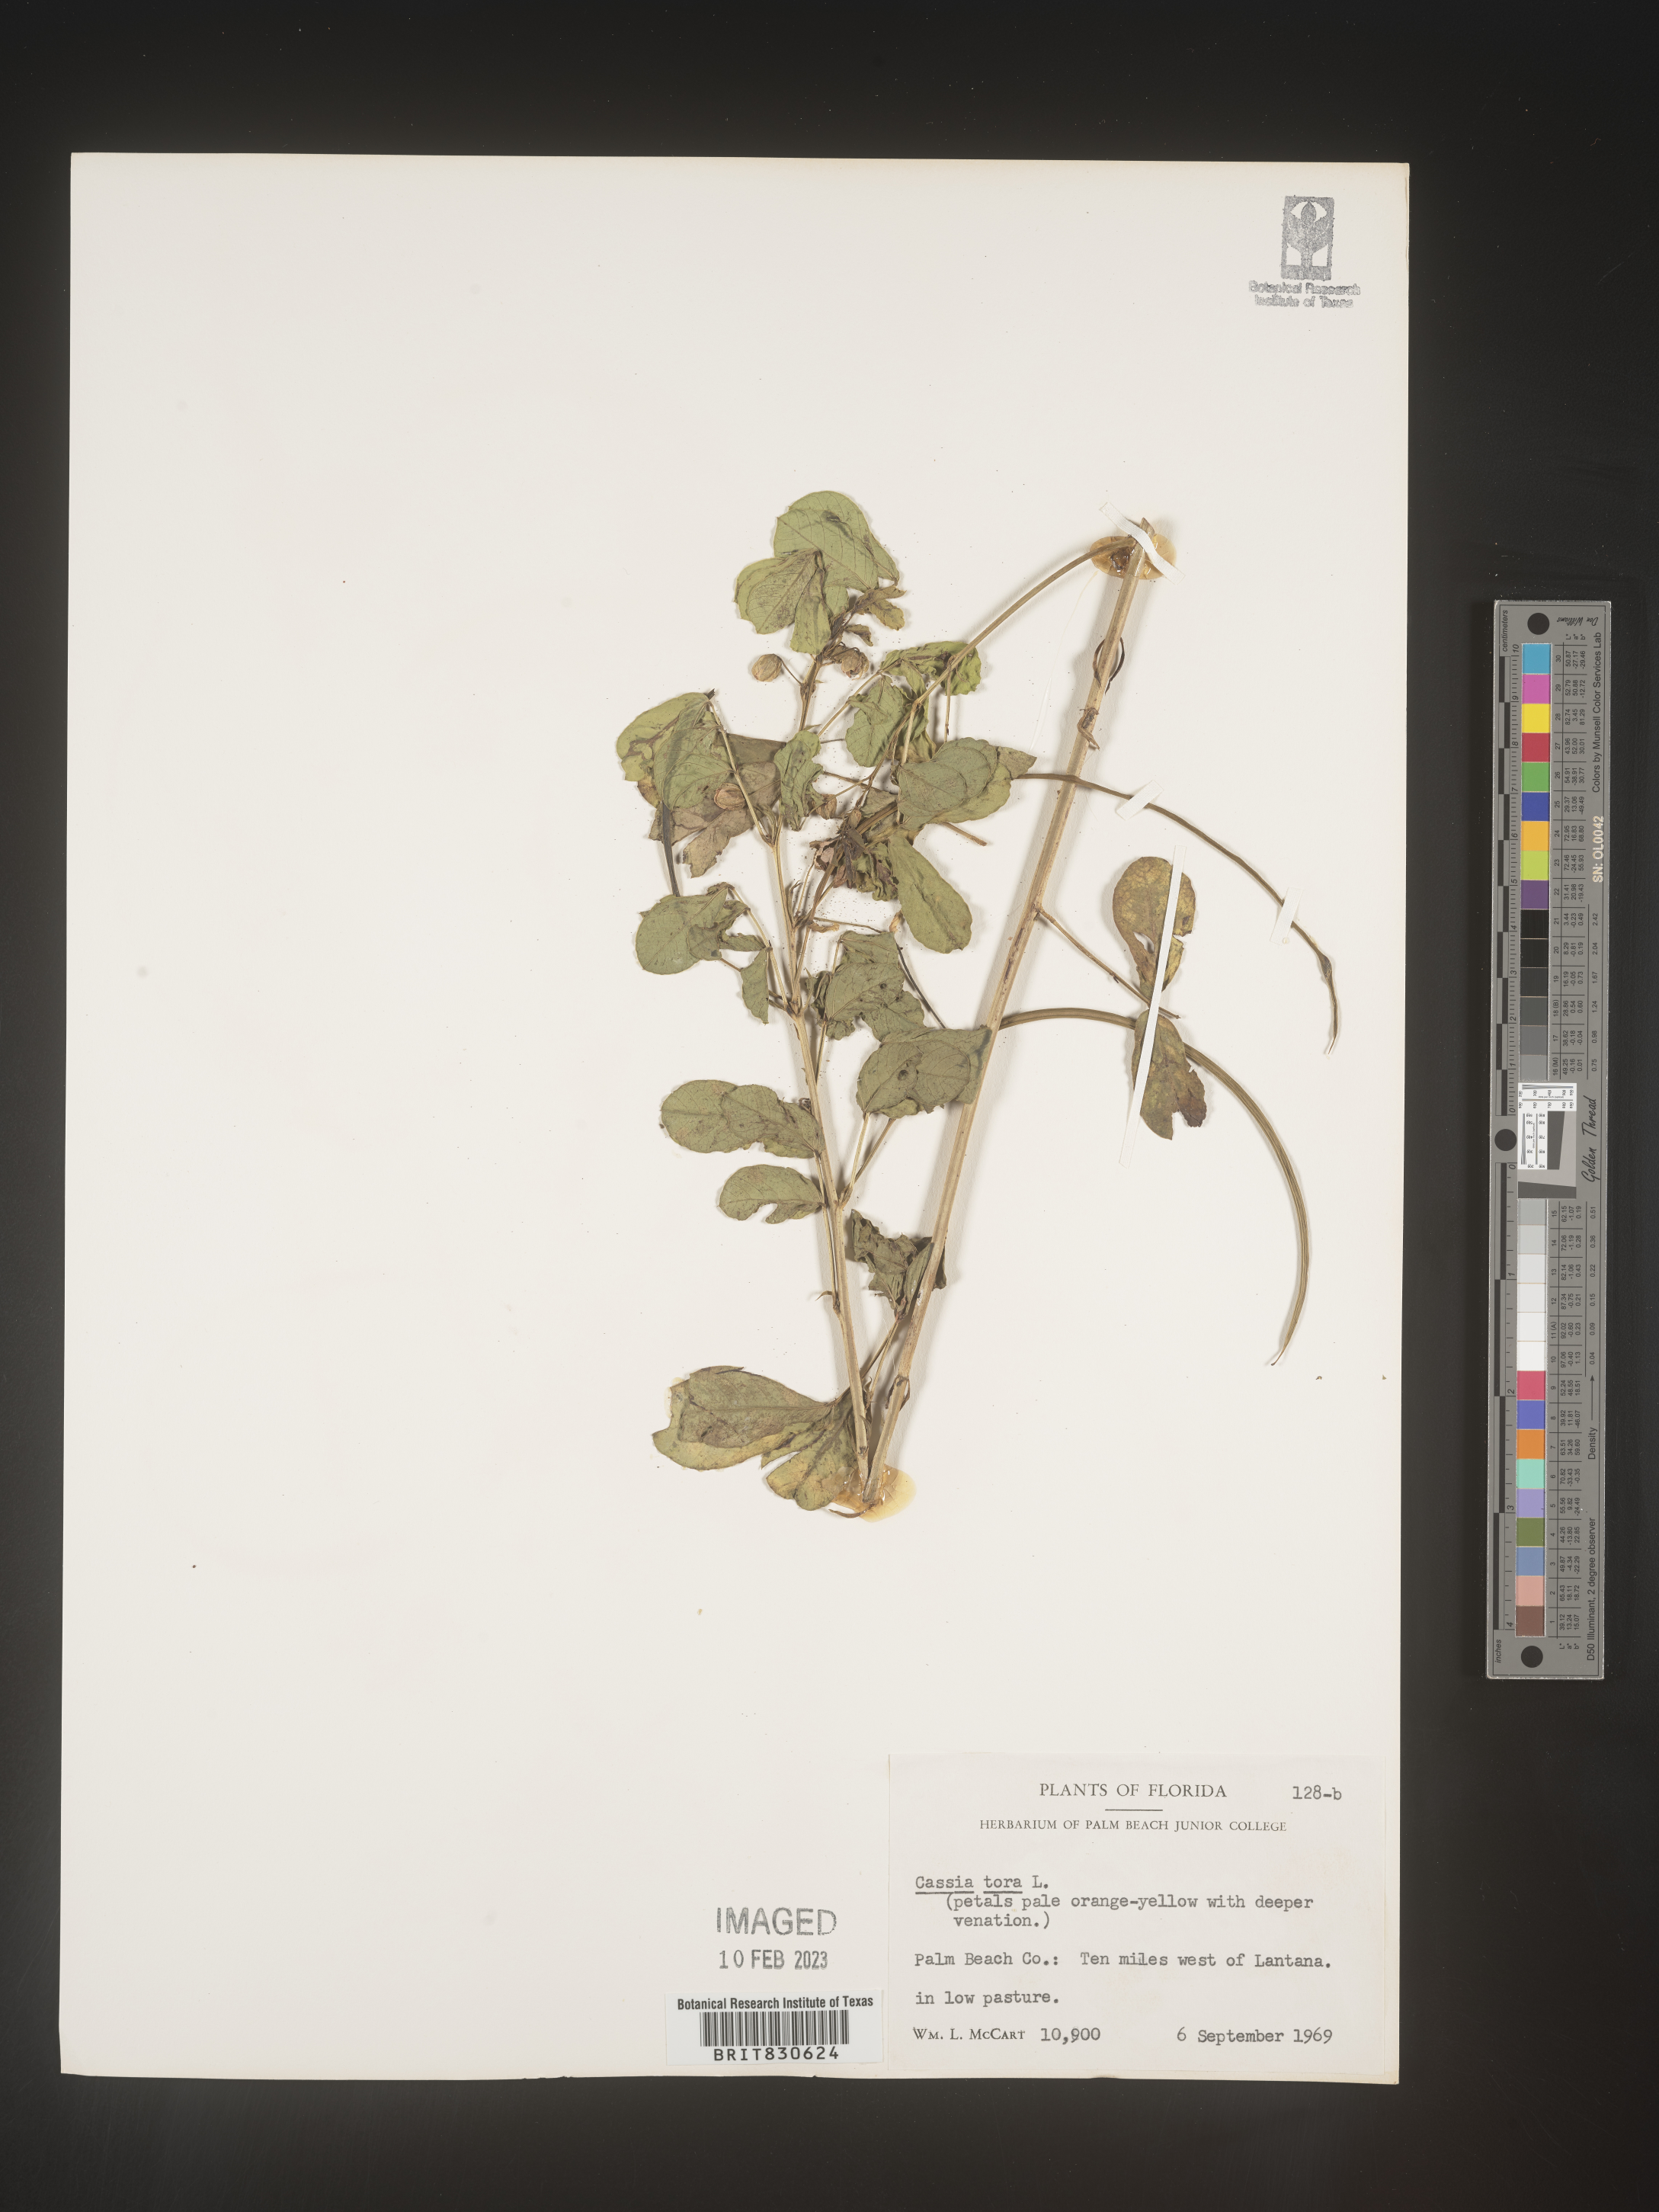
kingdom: Plantae
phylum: Tracheophyta
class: Magnoliopsida
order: Fabales
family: Fabaceae
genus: Senna
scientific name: Senna obtusifolia
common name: Java-bean
